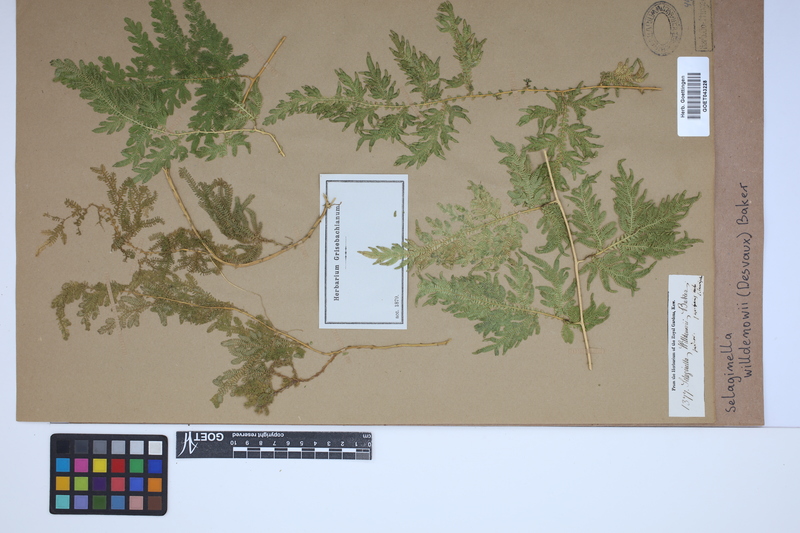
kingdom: Plantae
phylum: Tracheophyta
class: Lycopodiopsida
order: Selaginellales
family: Selaginellaceae
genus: Selaginella
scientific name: Selaginella willdenowii
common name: Willdenow's spikemoss
